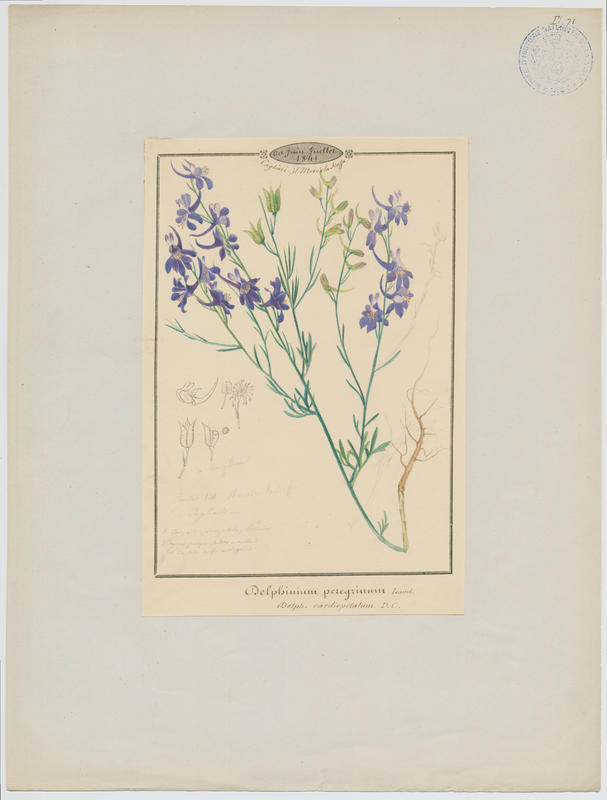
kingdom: Plantae
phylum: Tracheophyta
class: Magnoliopsida
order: Ranunculales
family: Ranunculaceae
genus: Delphinium
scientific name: Delphinium halteratum
